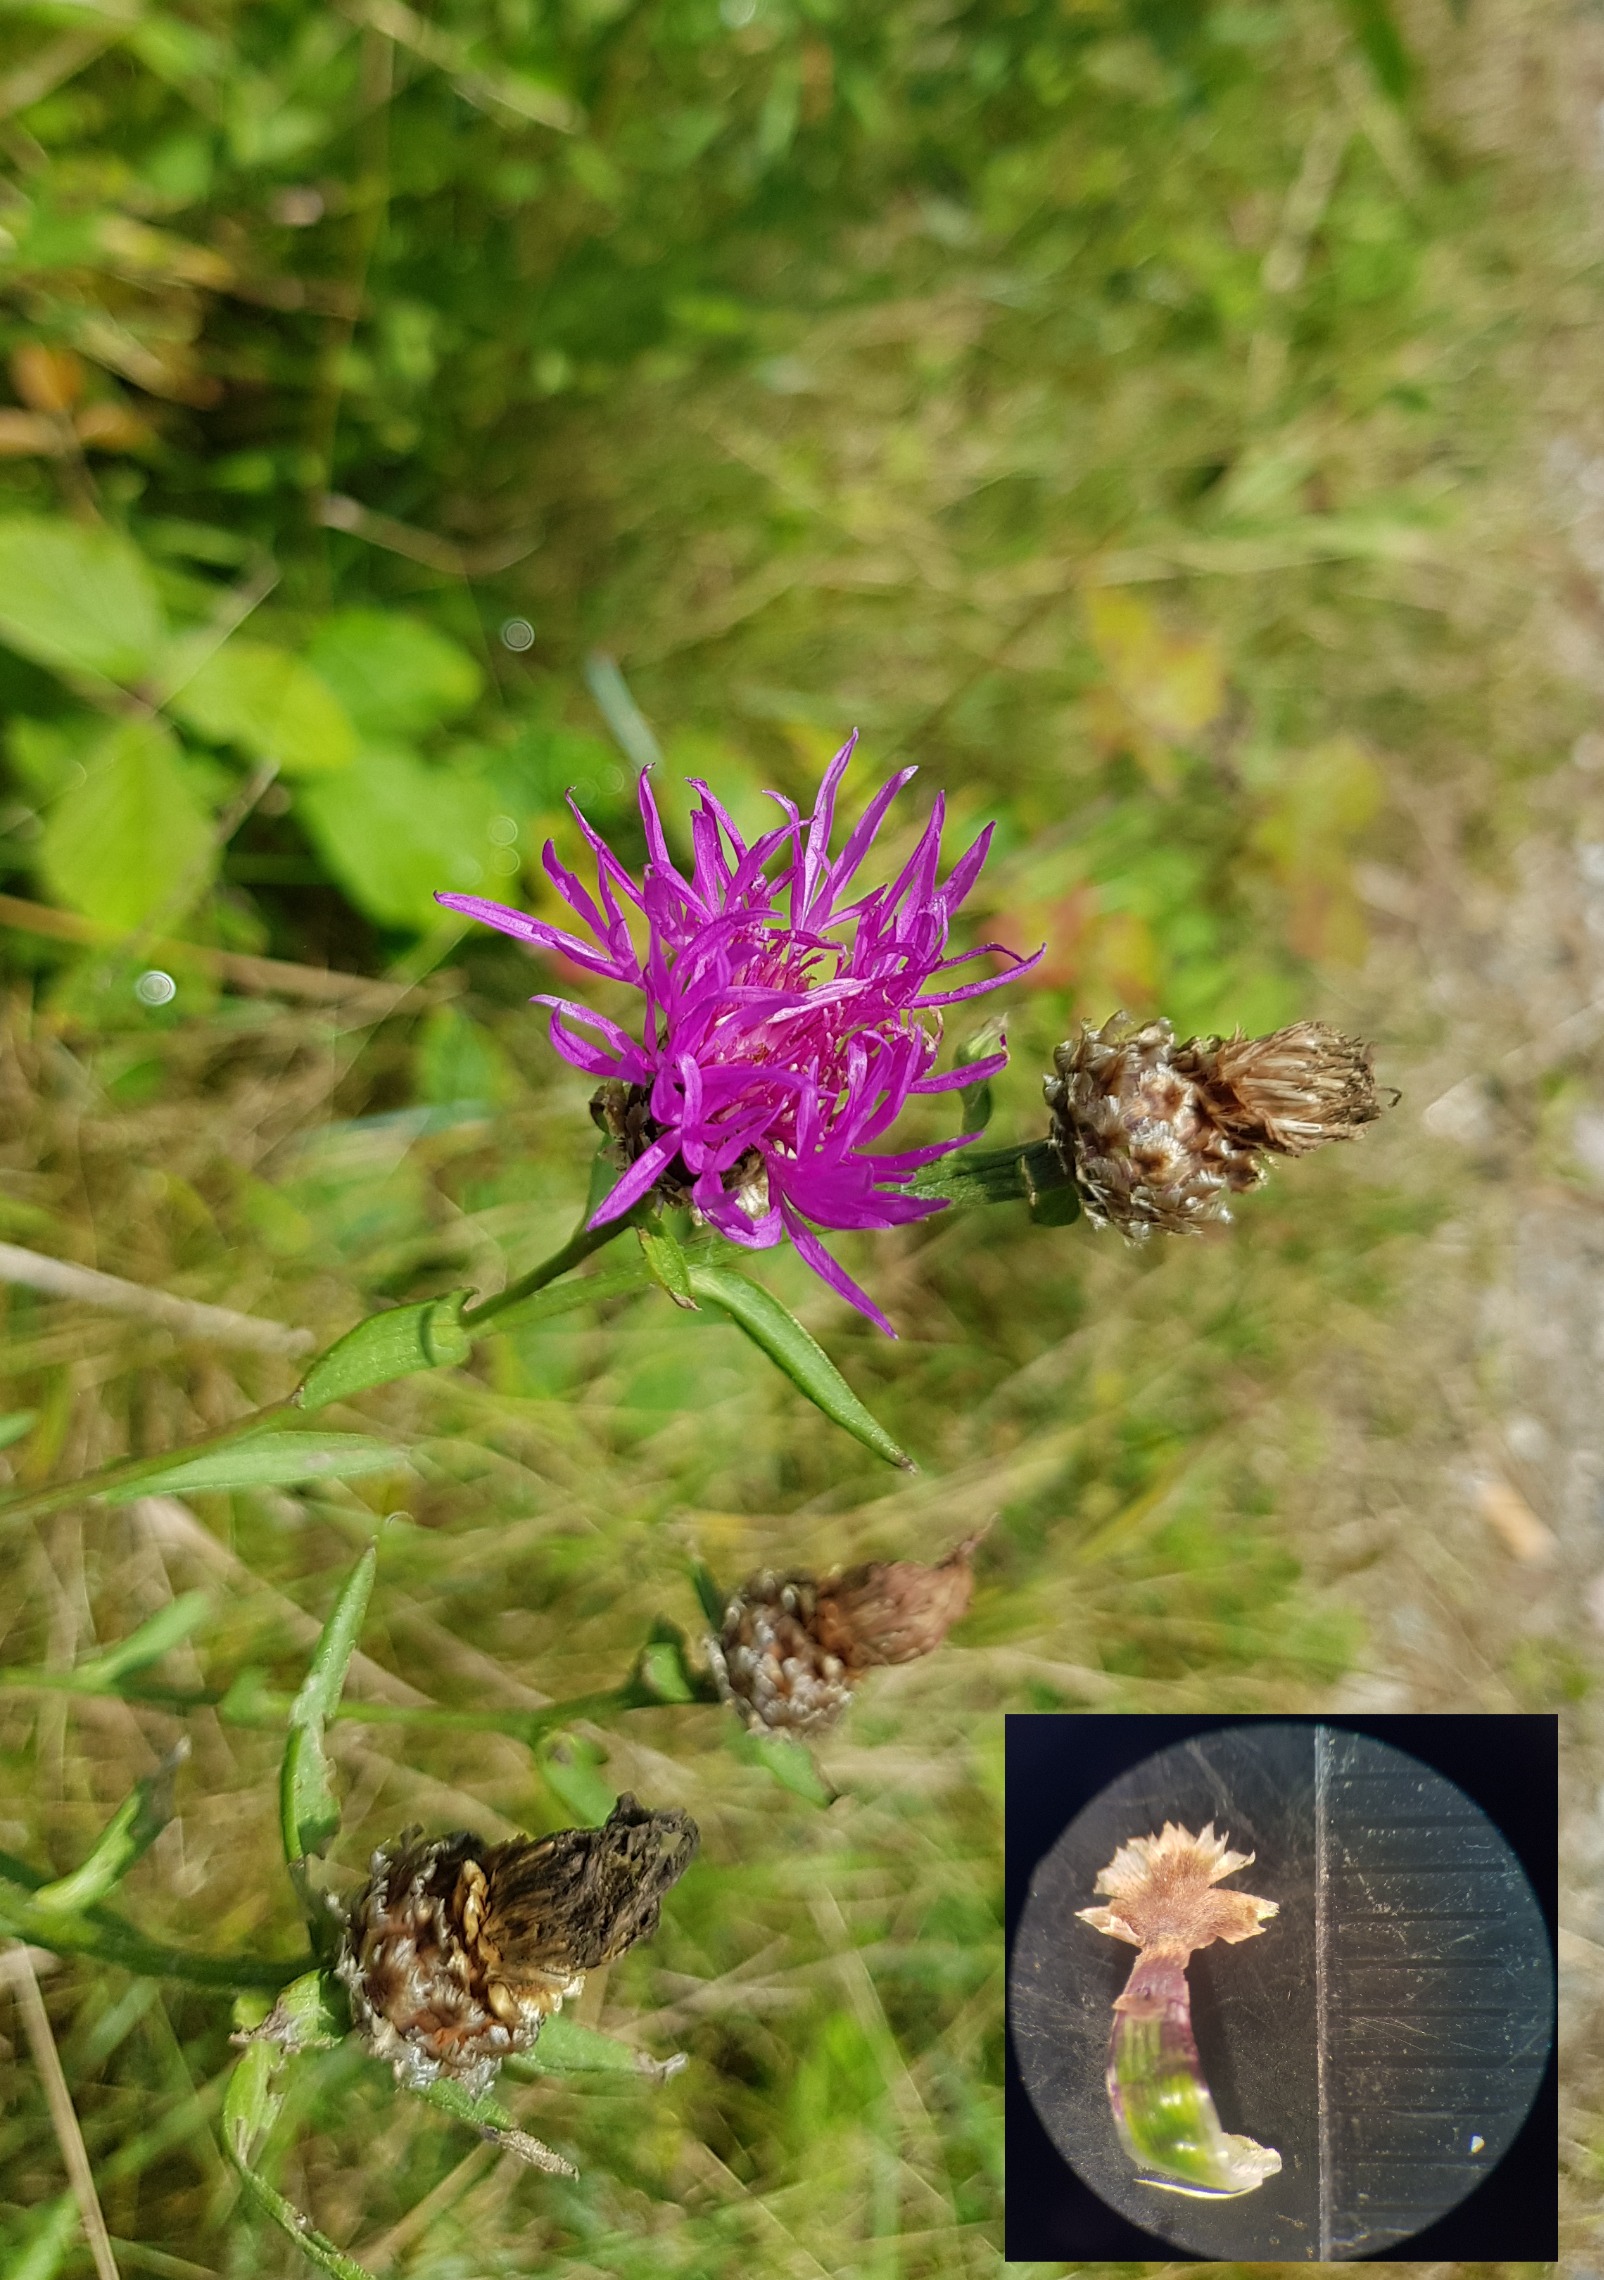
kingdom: Plantae
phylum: Tracheophyta
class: Magnoliopsida
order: Asterales
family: Asteraceae
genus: Centaurea
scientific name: Centaurea jacea
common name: Almindelig knopurt
